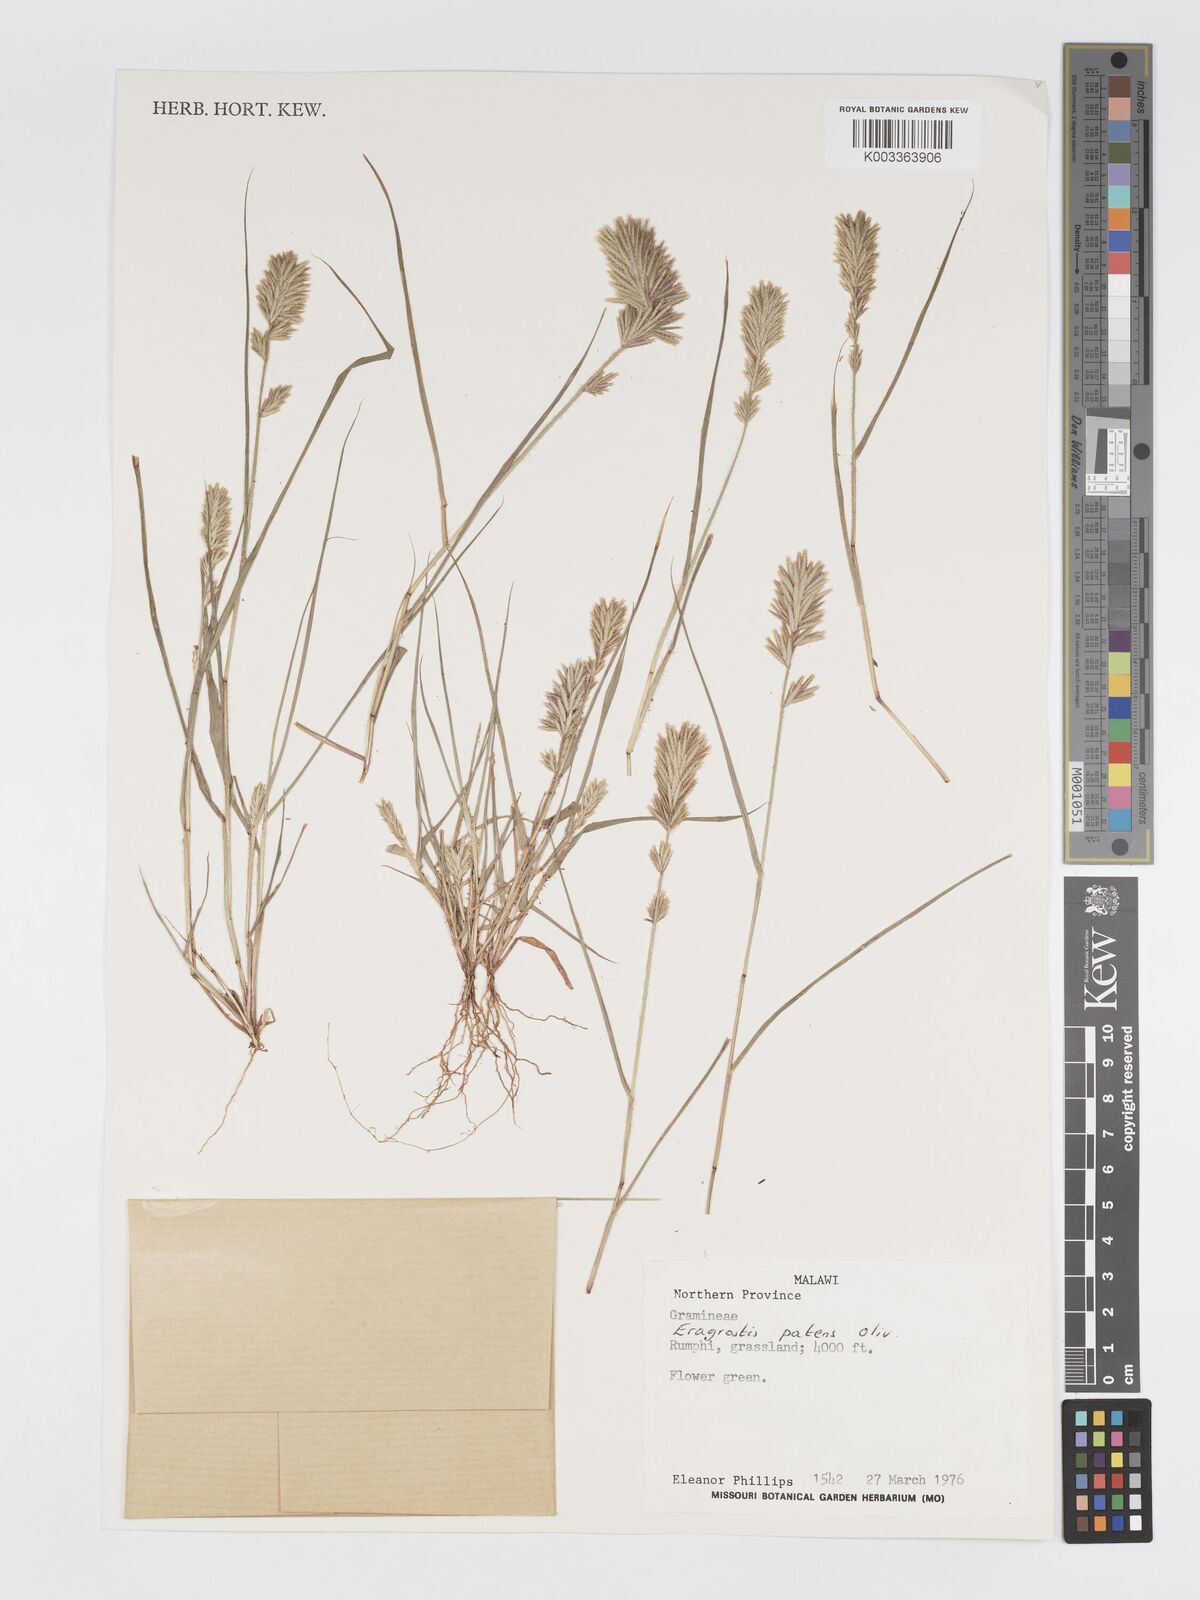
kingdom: Plantae
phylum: Tracheophyta
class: Liliopsida
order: Poales
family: Poaceae
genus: Eragrostis
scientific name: Eragrostis patens
